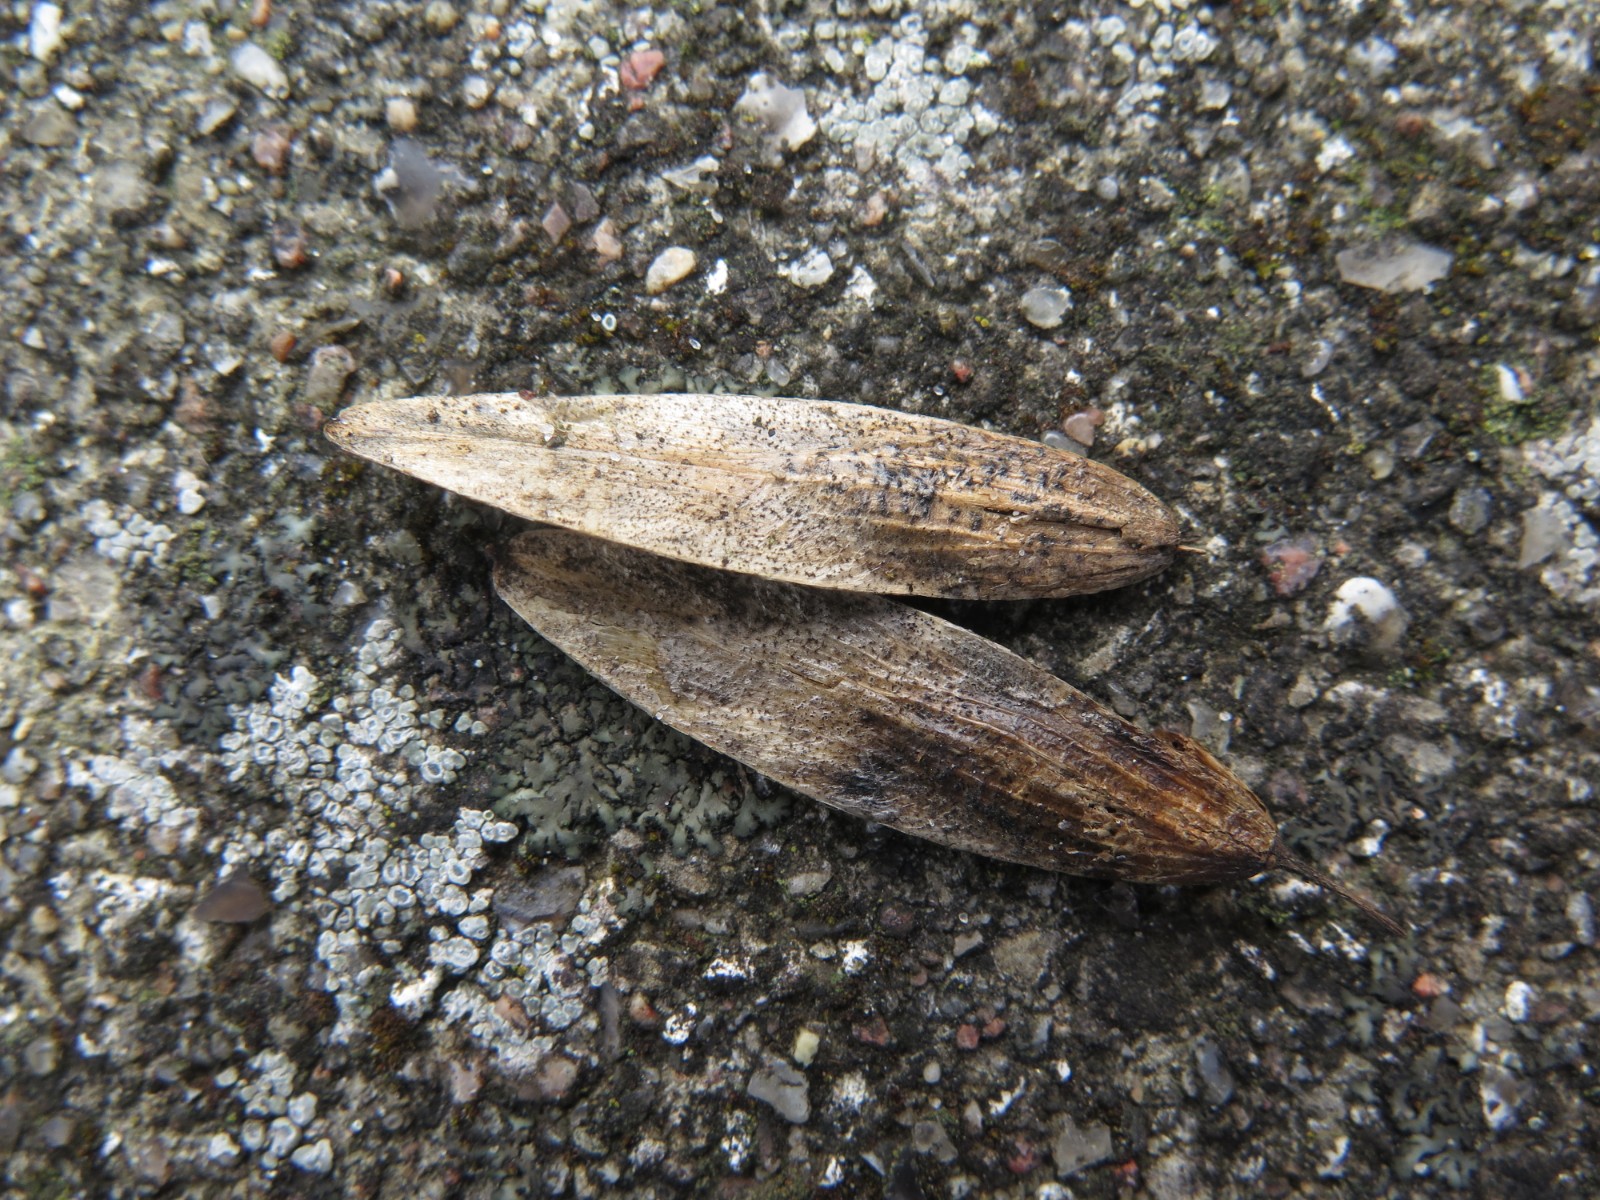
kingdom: Fungi
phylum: Ascomycota
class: Sordariomycetes
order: Diaporthales
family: Diaporthaceae
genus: Diaporthe
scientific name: Diaporthe samaricola
